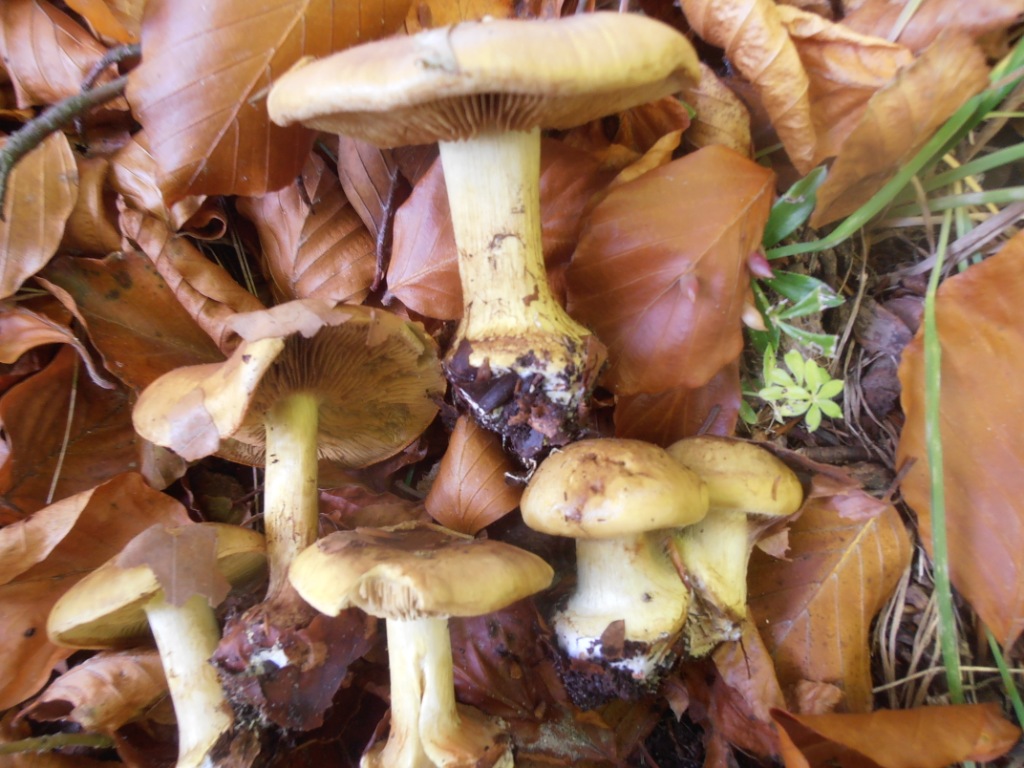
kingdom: Fungi
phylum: Basidiomycota
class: Agaricomycetes
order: Agaricales
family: Cortinariaceae
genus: Calonarius
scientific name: Calonarius citrinus
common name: citrongul slørhat
